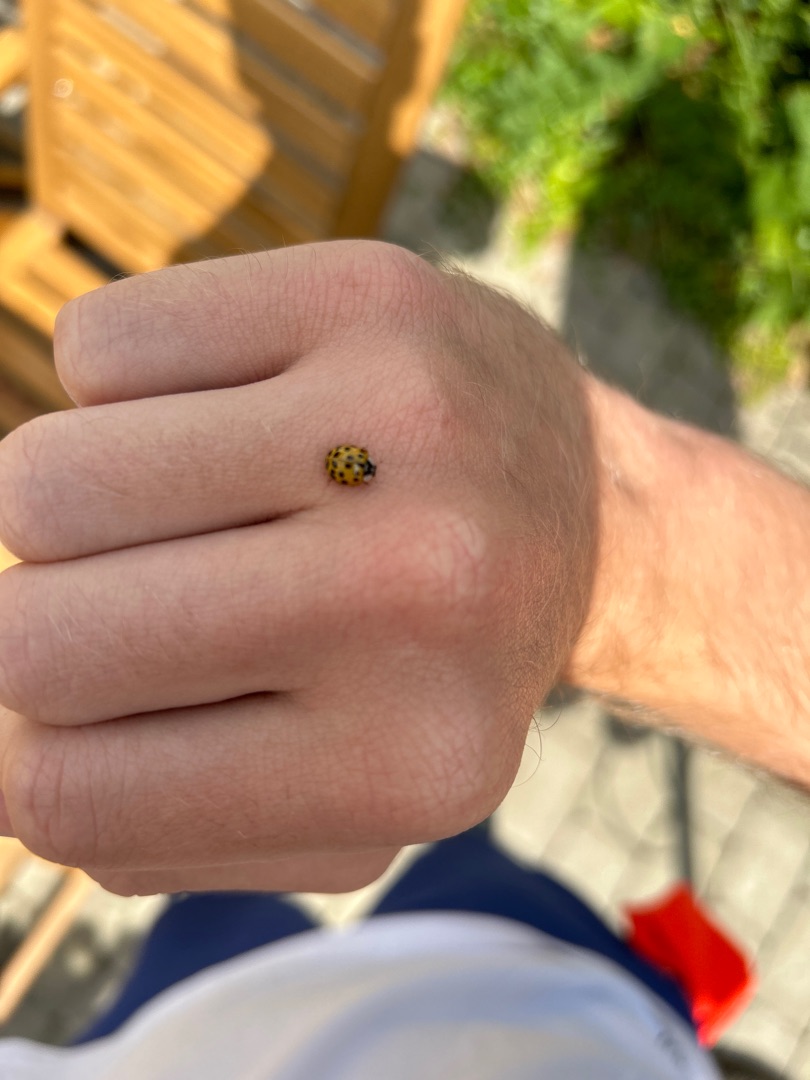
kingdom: Animalia
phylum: Arthropoda
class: Insecta
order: Coleoptera
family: Coccinellidae
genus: Harmonia
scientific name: Harmonia axyridis
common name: Harlekinmariehøne
